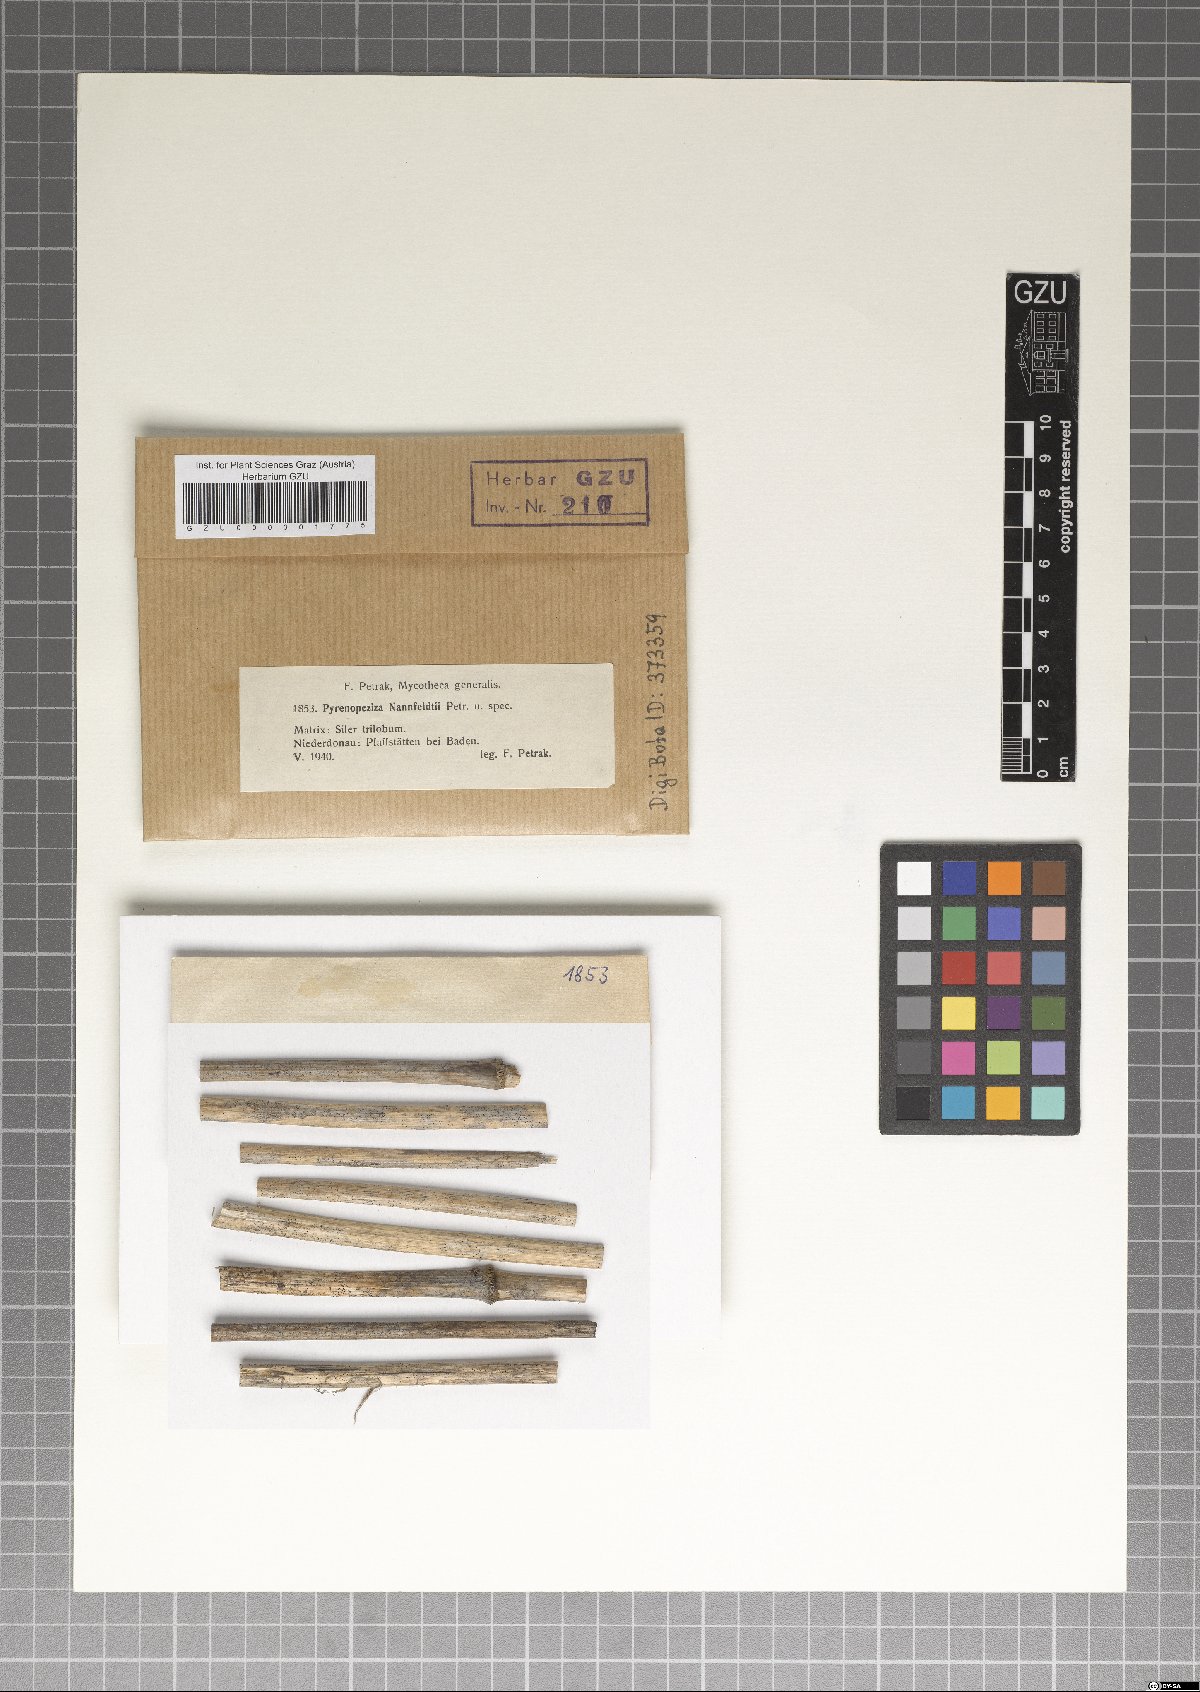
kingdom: Fungi
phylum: Ascomycota
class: Leotiomycetes
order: Helotiales
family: Mollisiaceae
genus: Mollisia
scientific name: Mollisia nannfeldtii
